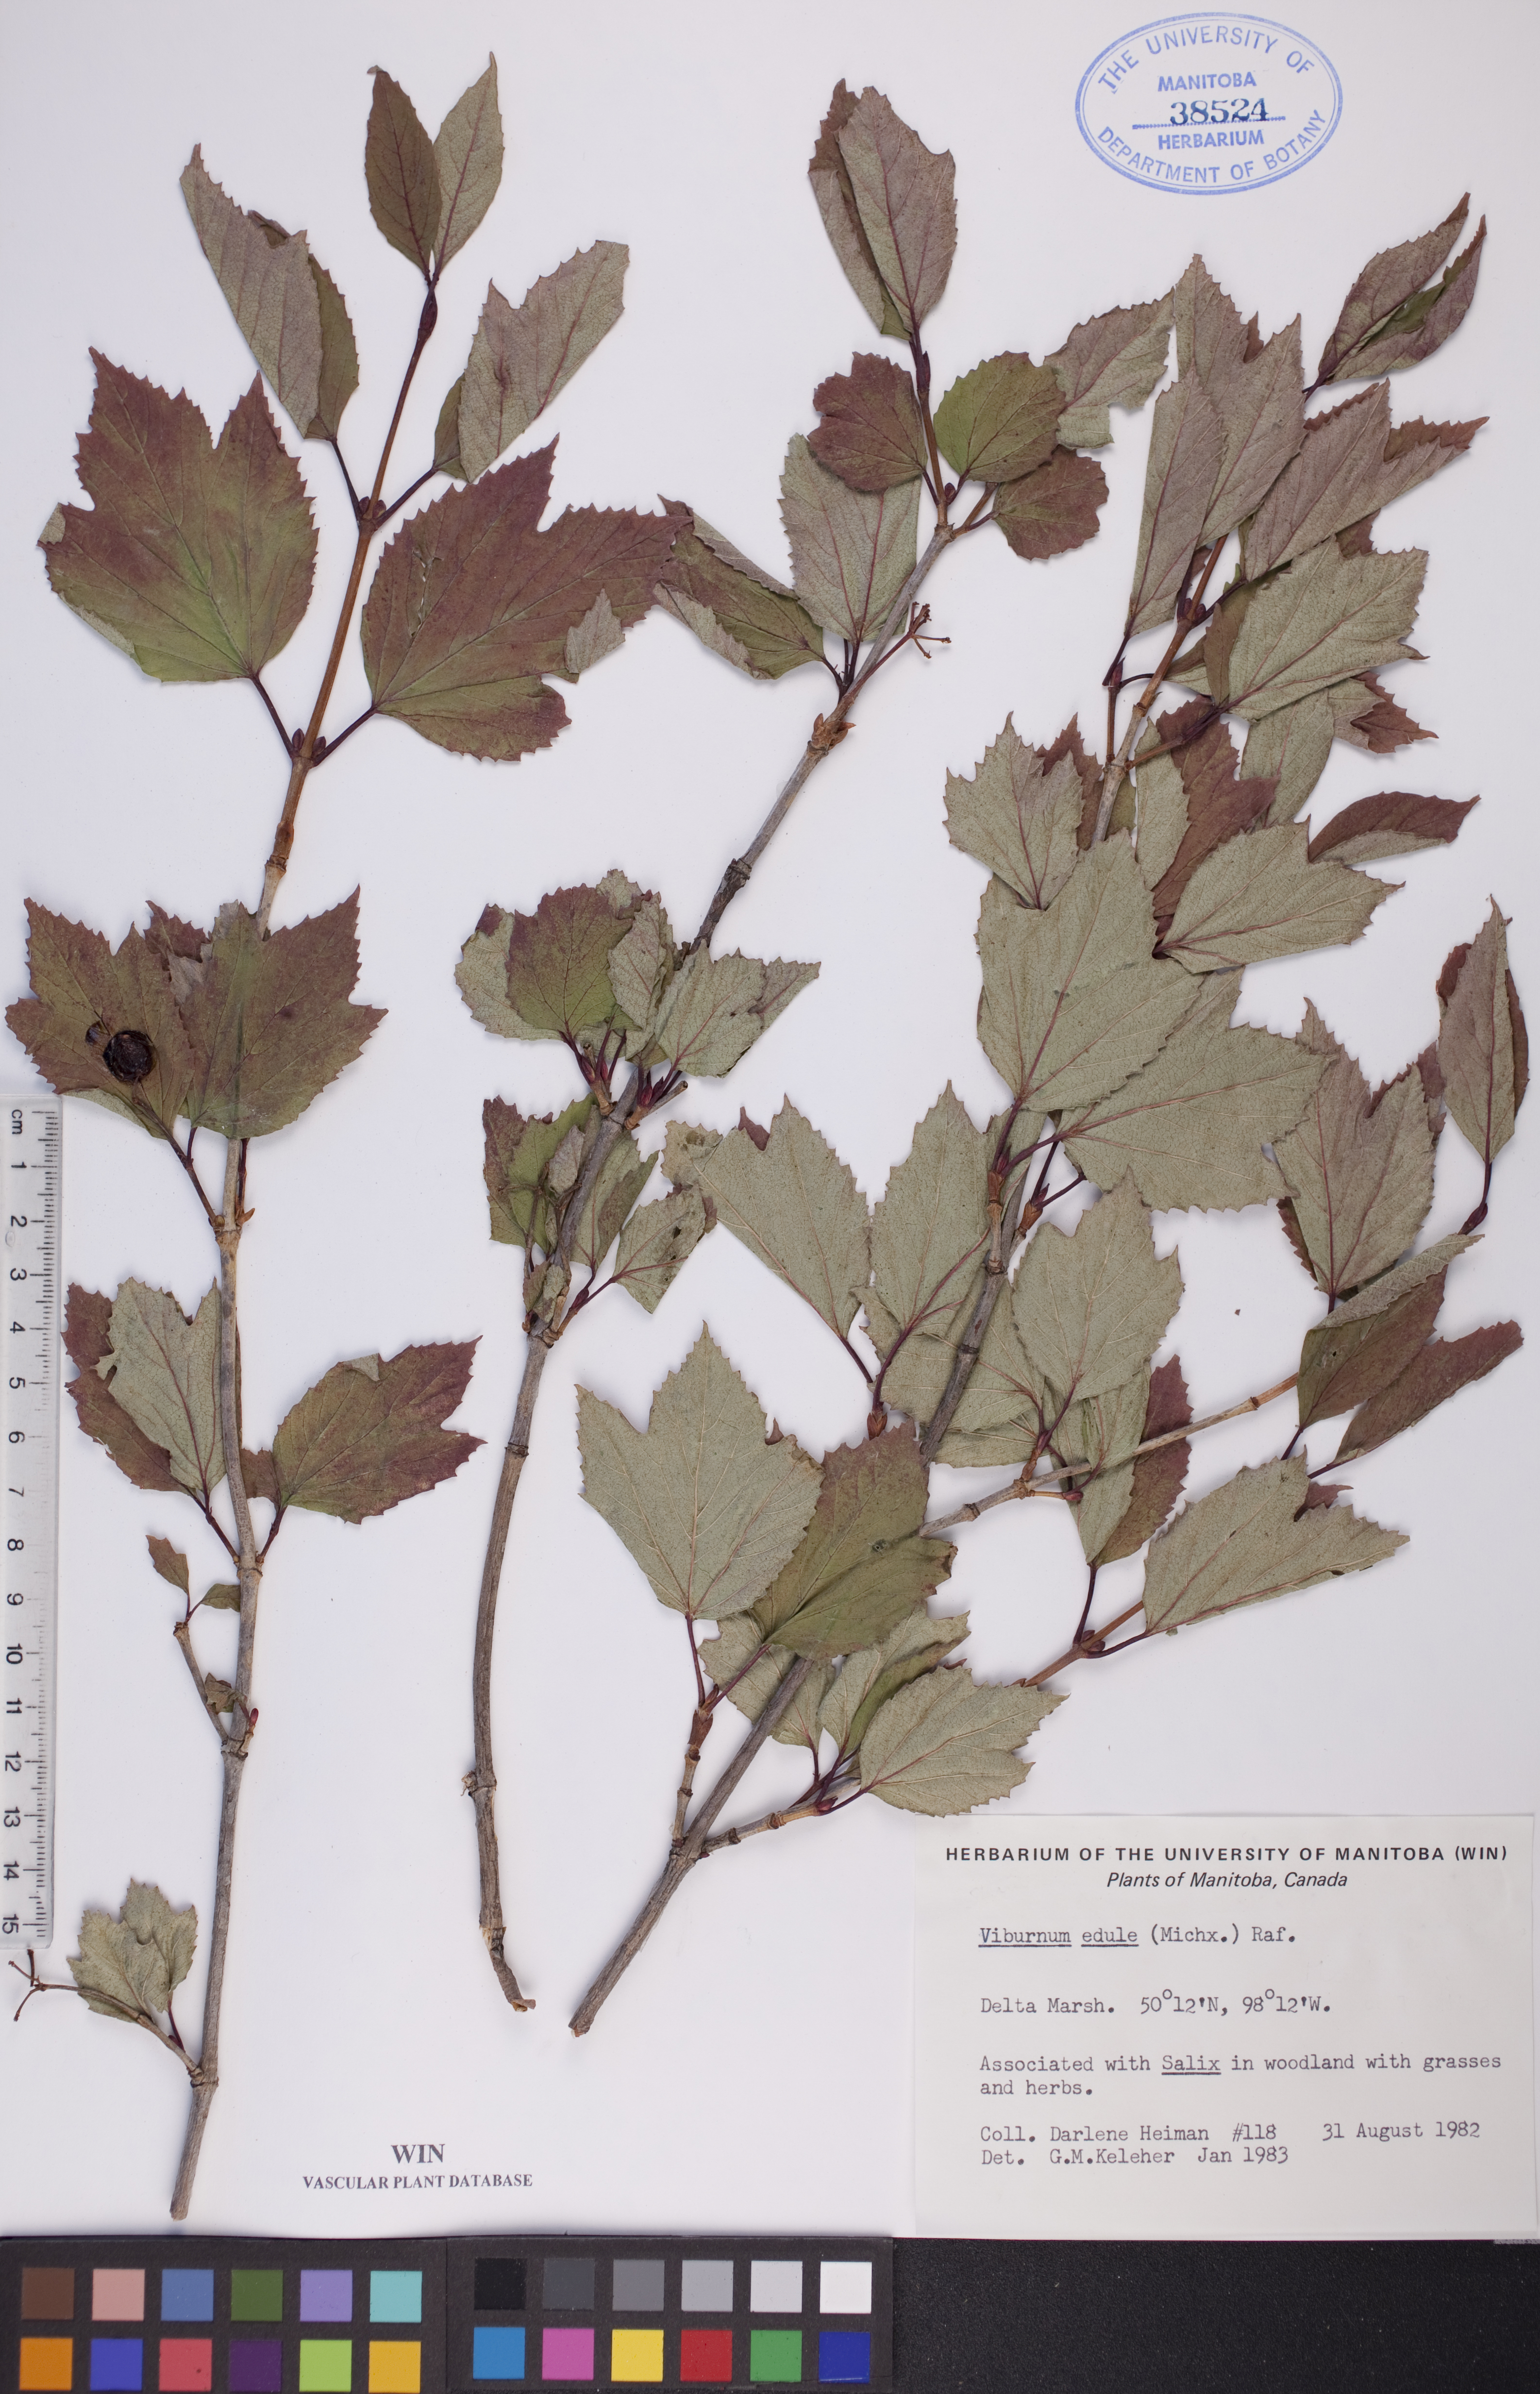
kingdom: Plantae
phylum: Tracheophyta
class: Magnoliopsida
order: Dipsacales
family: Viburnaceae
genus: Viburnum
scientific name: Viburnum edule
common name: Mooseberry
